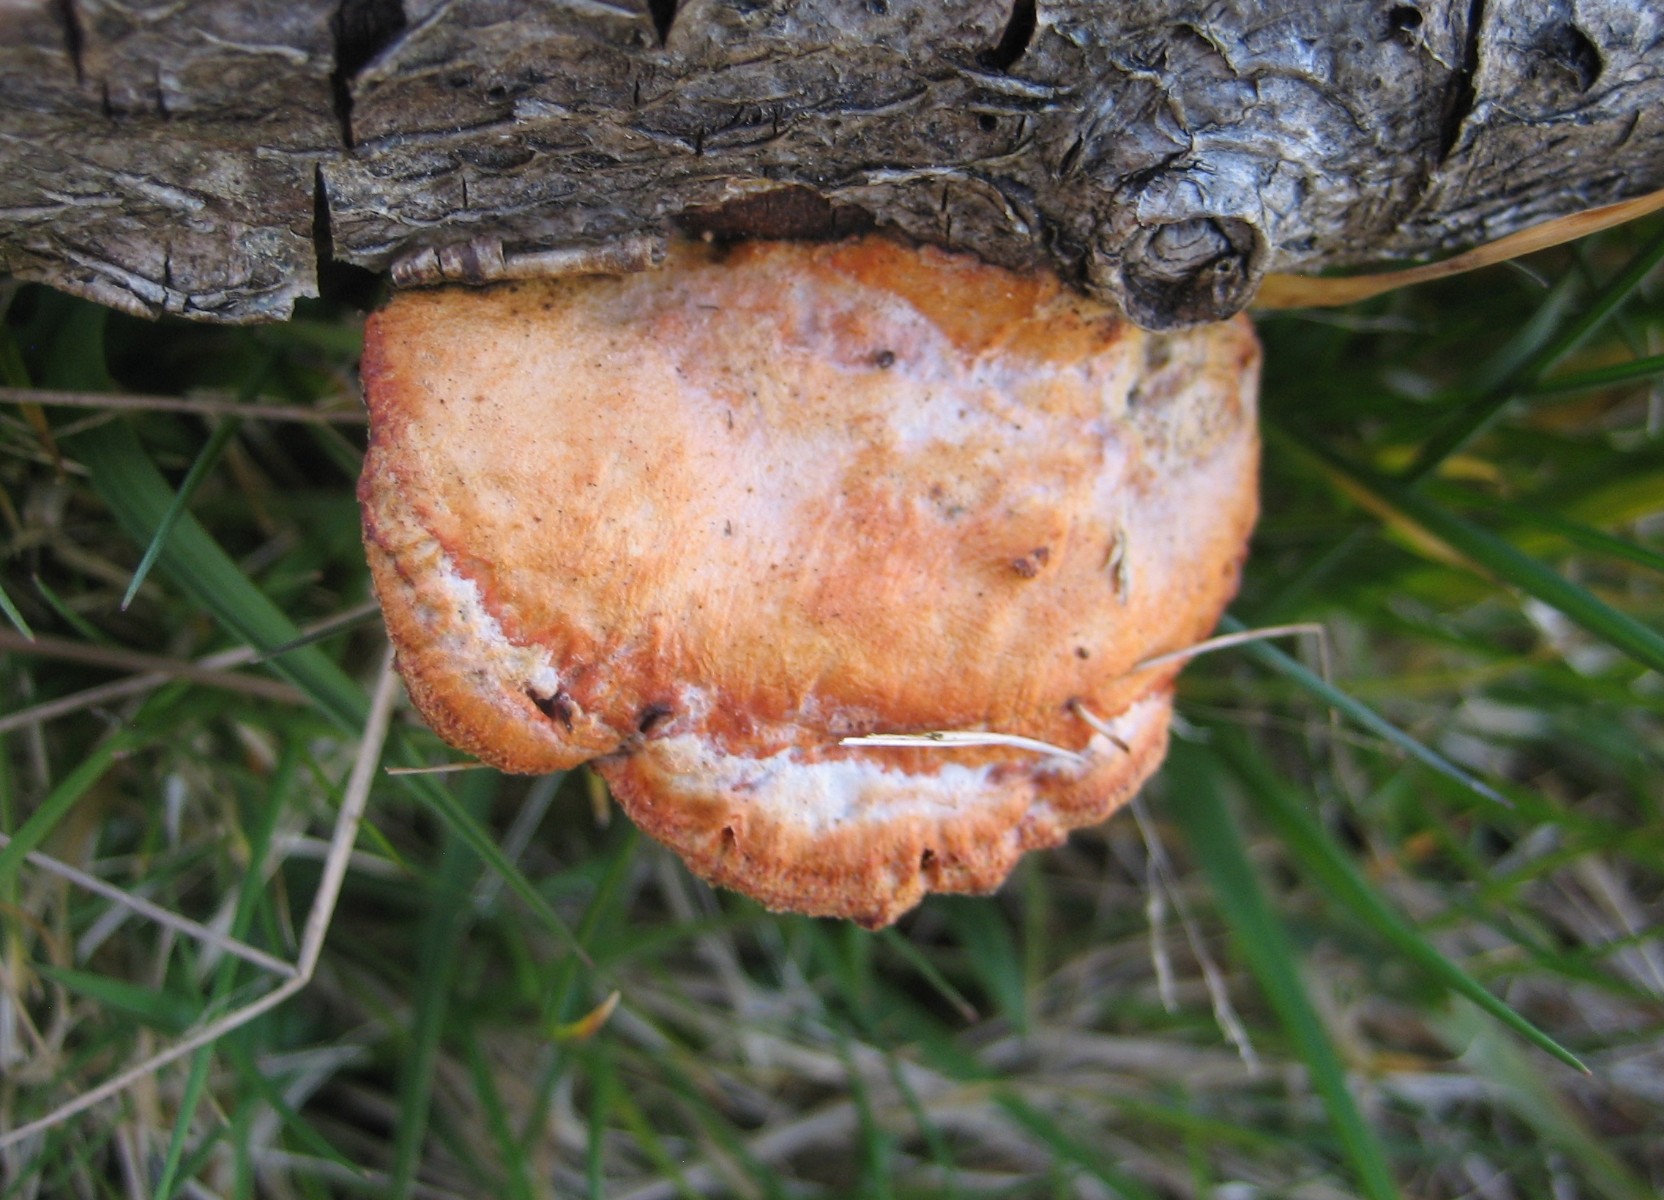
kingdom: Fungi
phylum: Basidiomycota
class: Agaricomycetes
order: Polyporales
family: Polyporaceae
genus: Trametes
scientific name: Trametes cinnabarina
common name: cinnoberporesvamp
